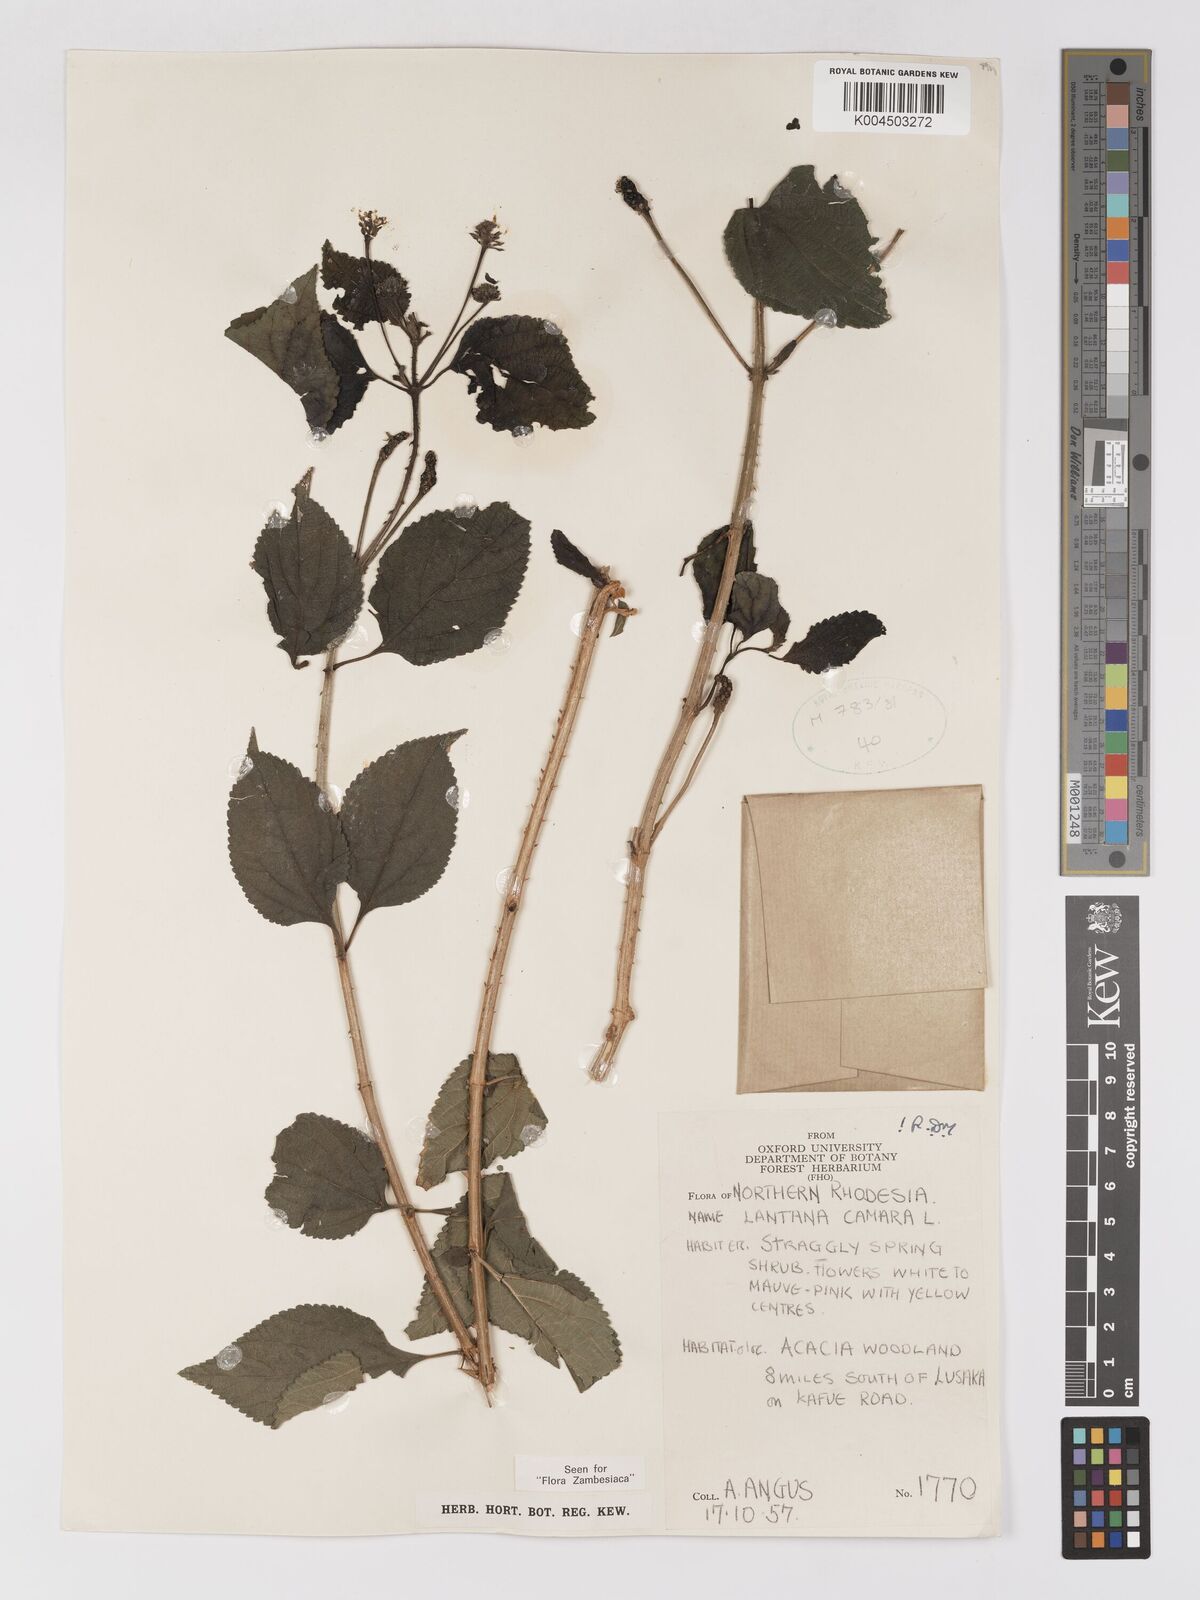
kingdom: Plantae
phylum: Tracheophyta
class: Magnoliopsida
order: Lamiales
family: Verbenaceae
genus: Lantana
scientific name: Lantana camara
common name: Lantana
